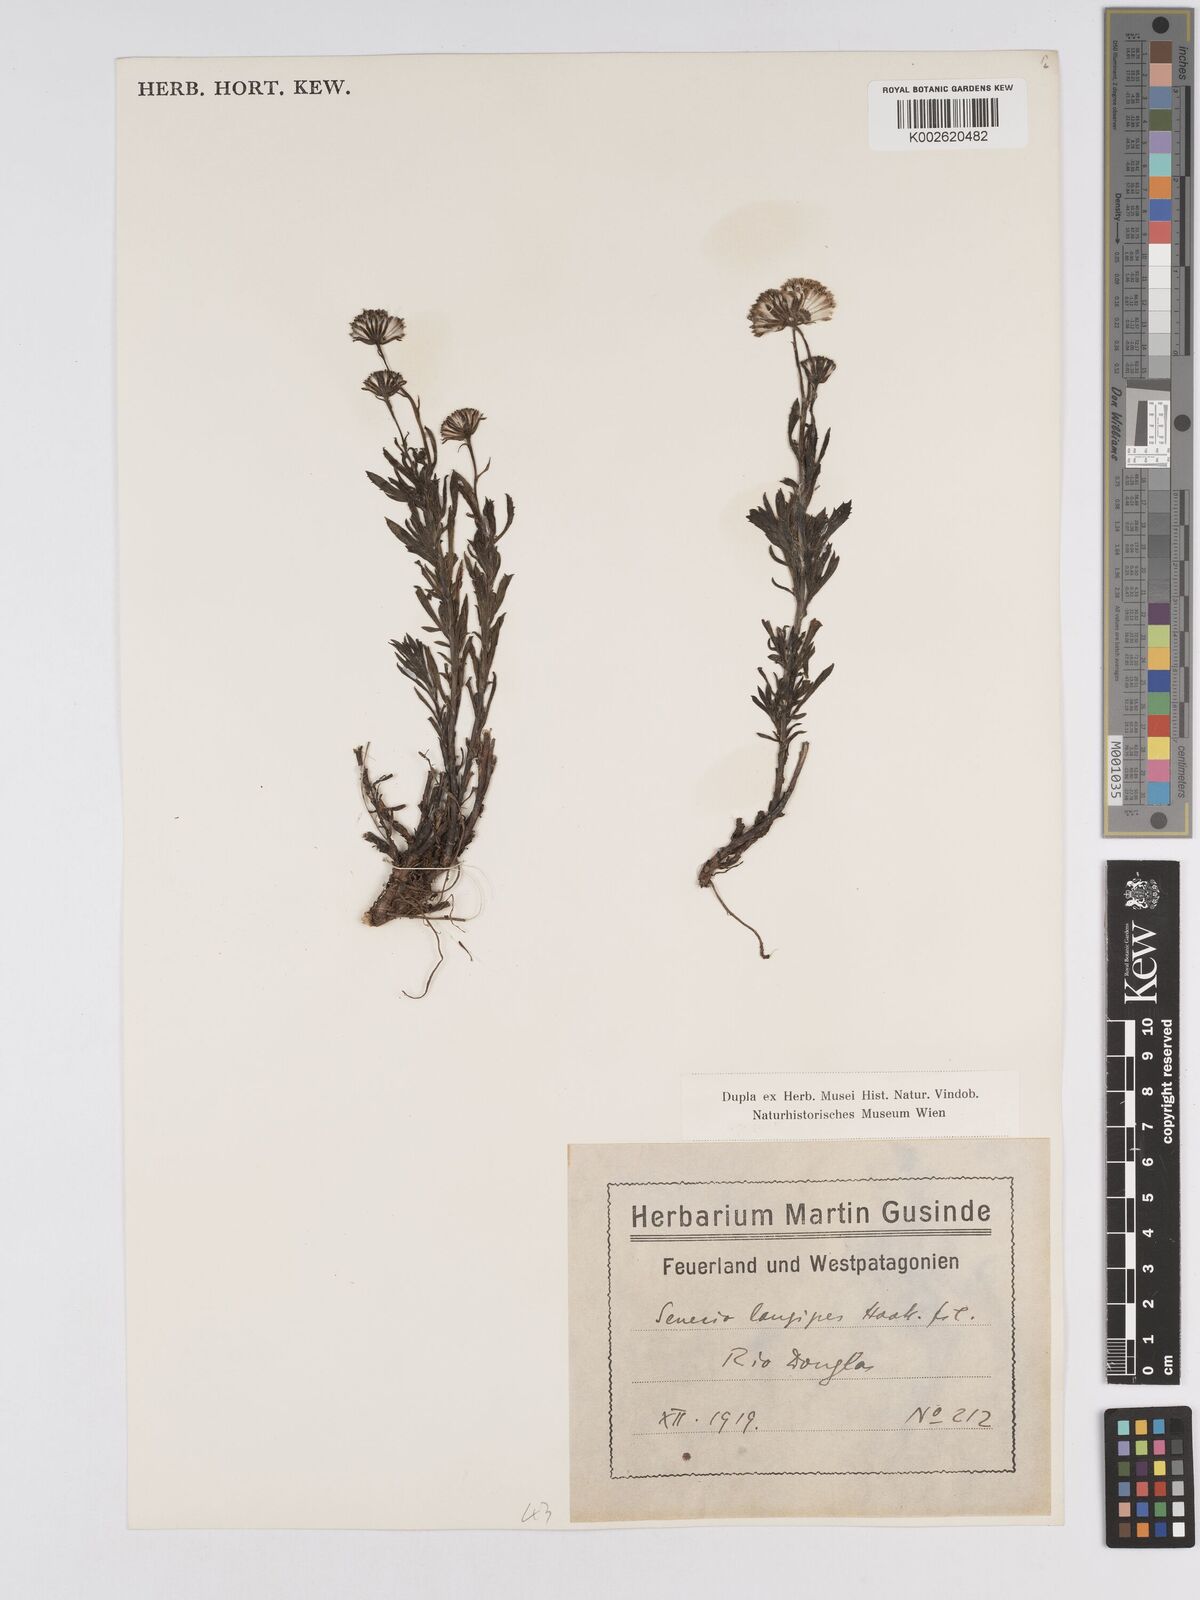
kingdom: Plantae
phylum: Tracheophyta
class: Magnoliopsida
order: Asterales
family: Asteraceae
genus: Senecio
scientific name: Senecio tricuspidatus
